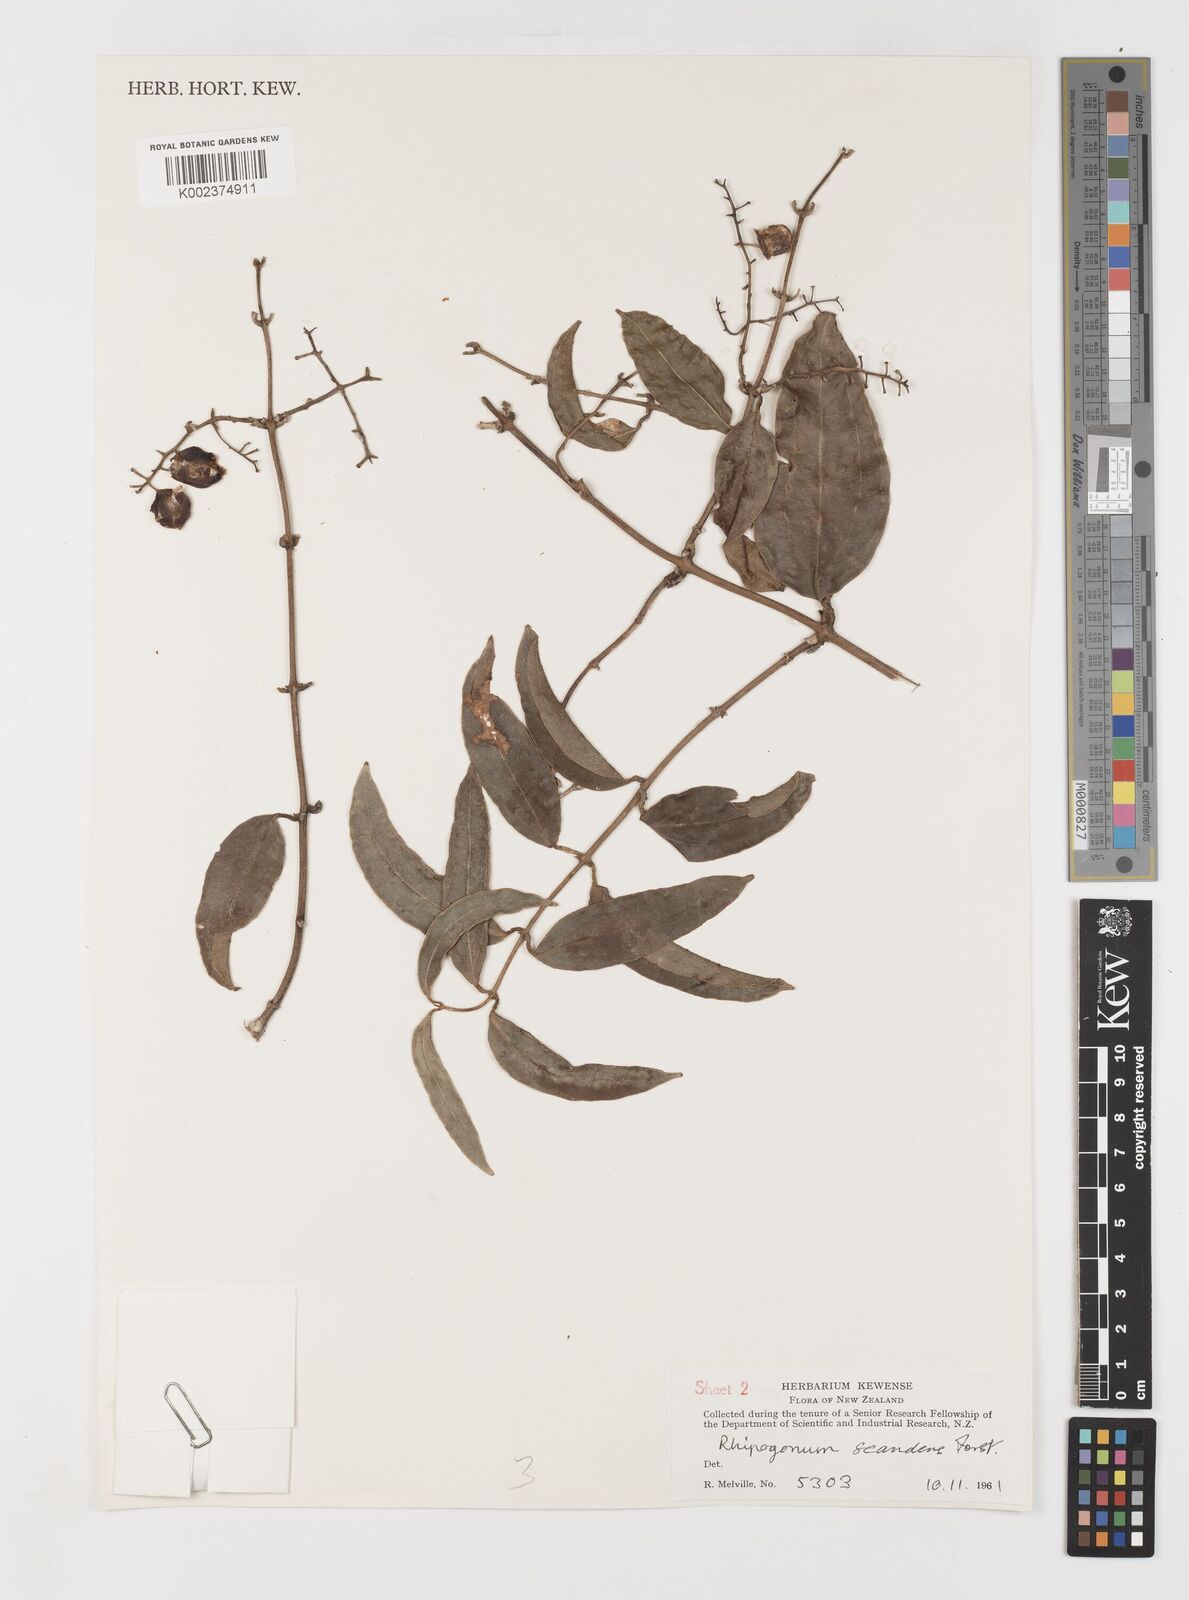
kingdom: Plantae
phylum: Tracheophyta
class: Liliopsida
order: Liliales
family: Ripogonaceae
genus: Ripogonum
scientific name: Ripogonum
